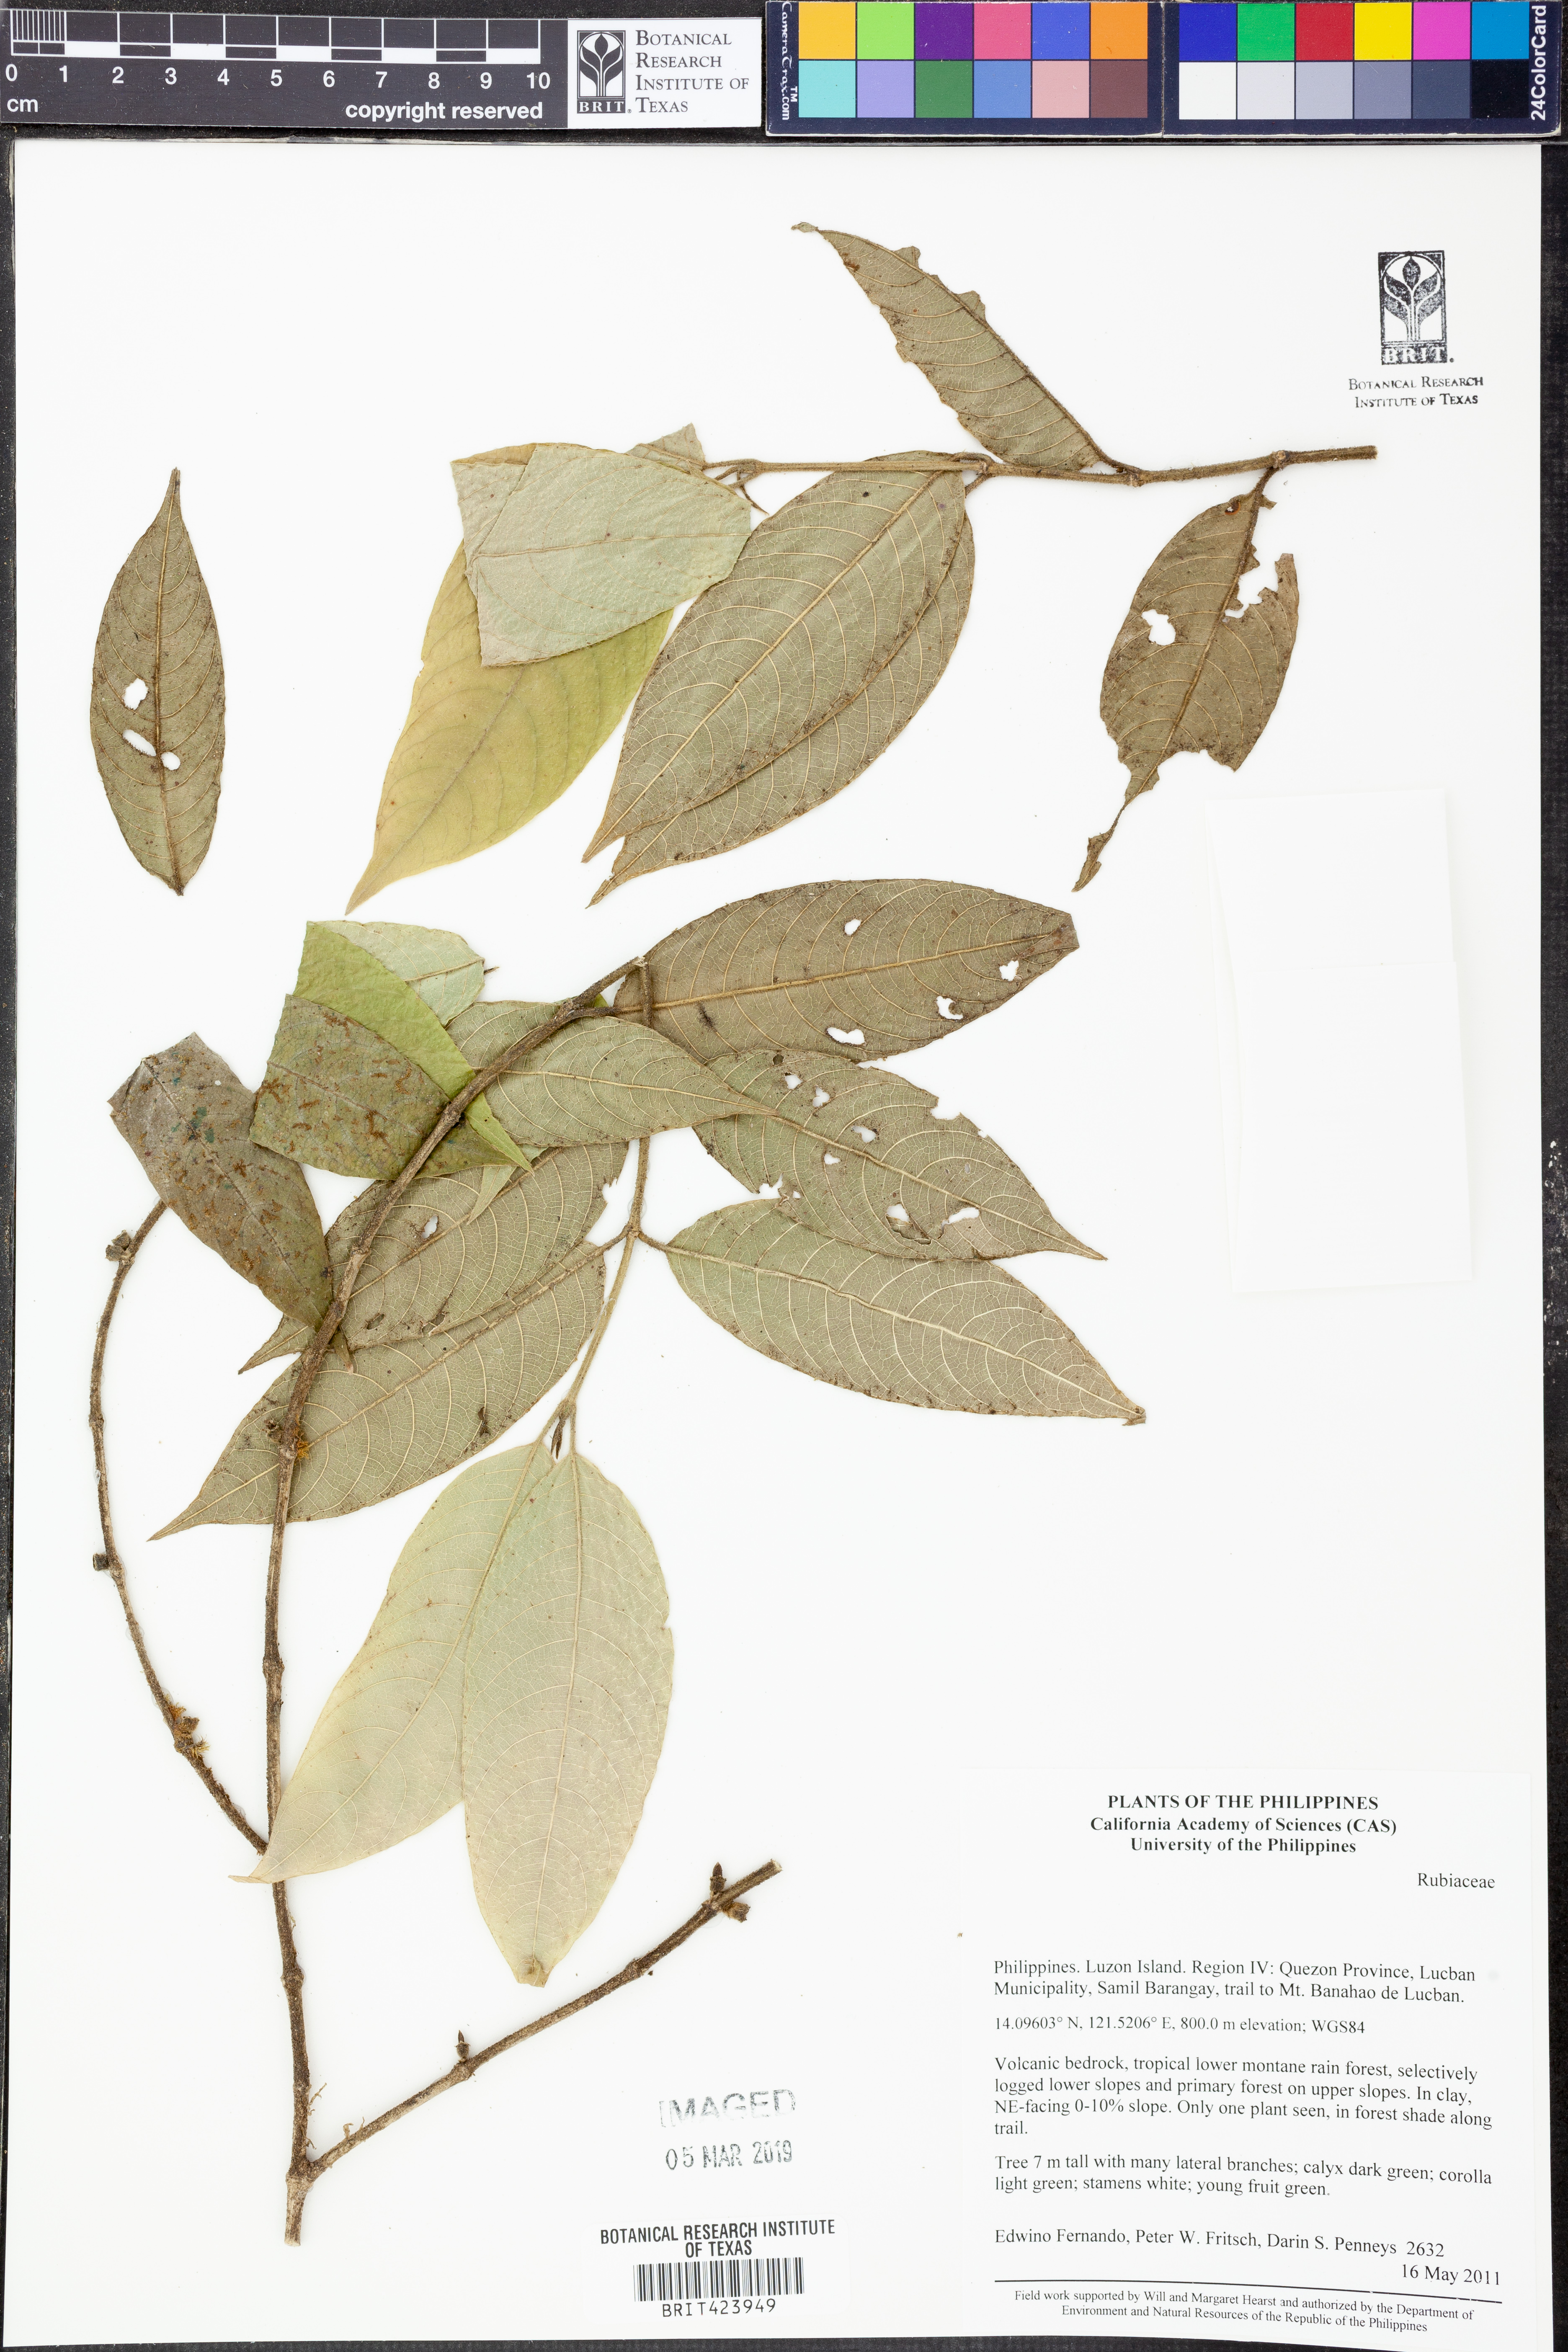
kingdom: Plantae
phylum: Tracheophyta
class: Magnoliopsida
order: Gentianales
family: Rubiaceae
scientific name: Rubiaceae
